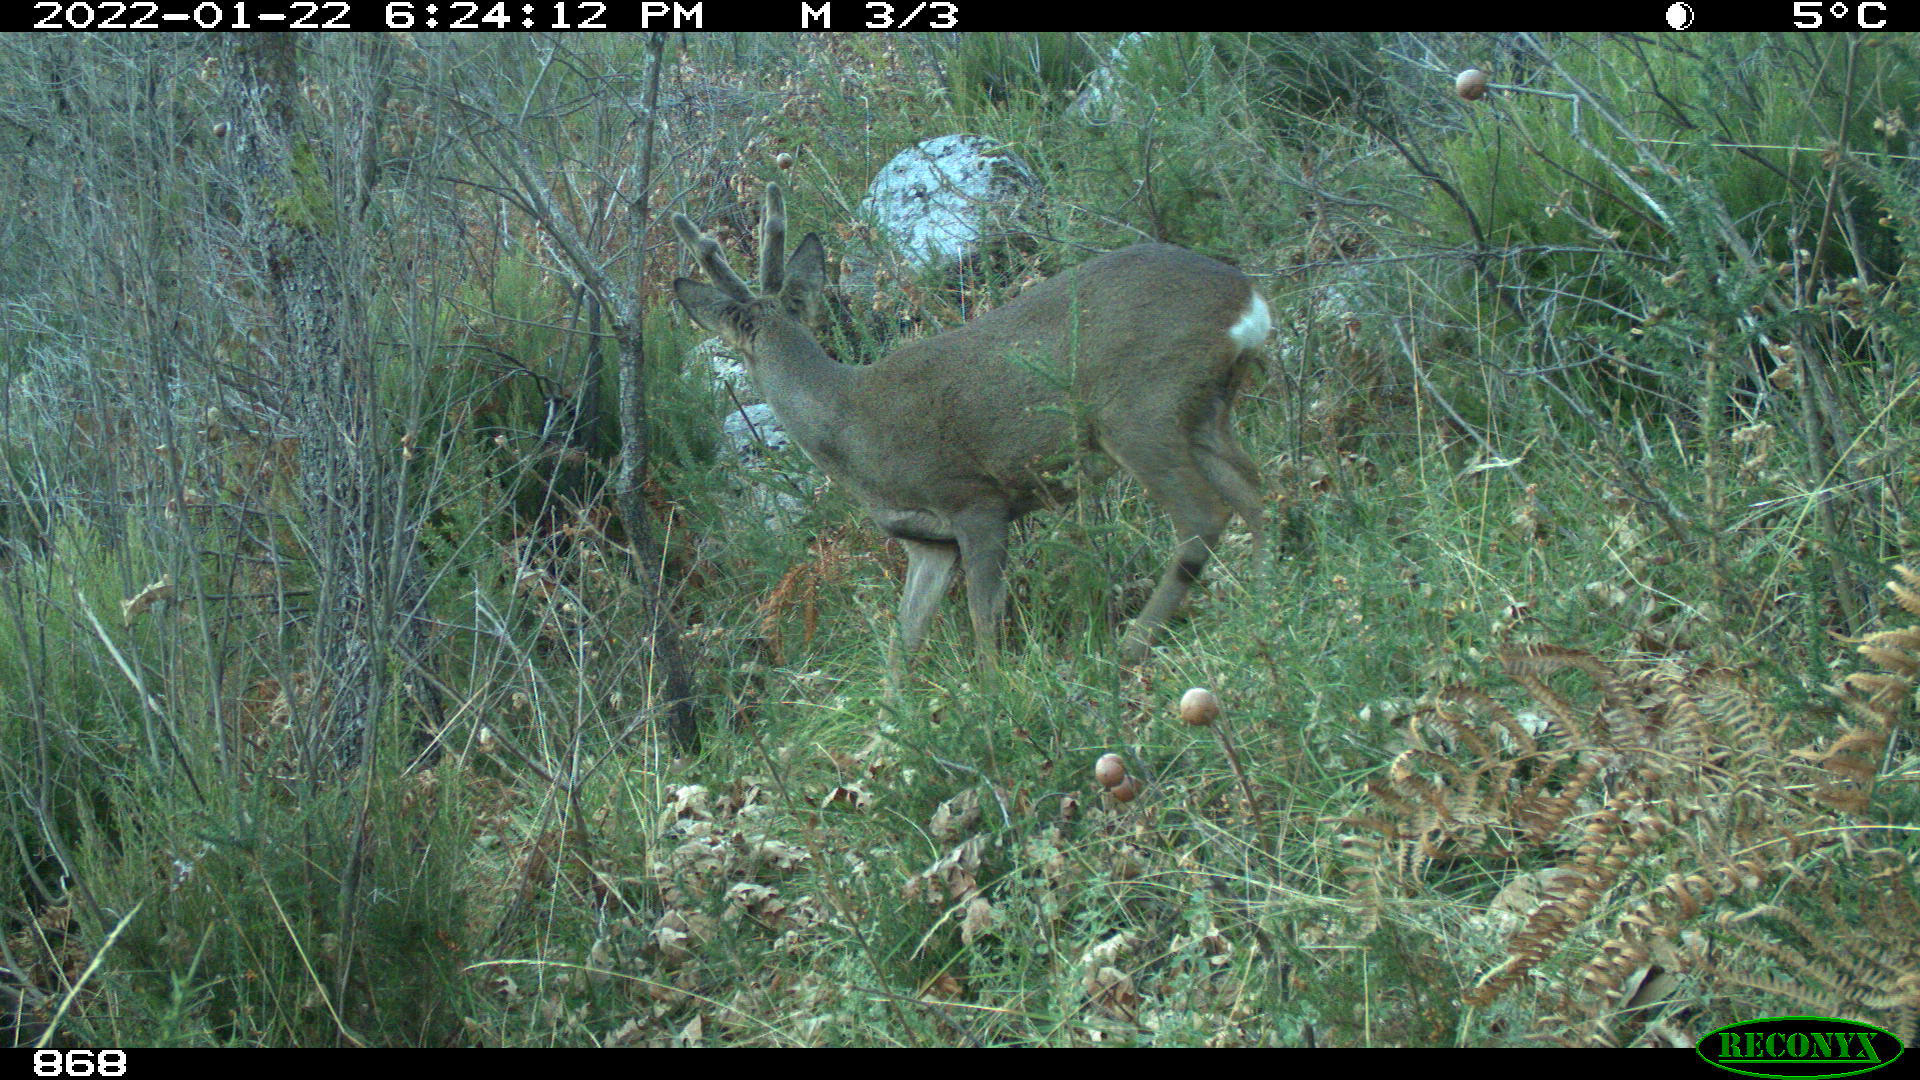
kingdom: Animalia
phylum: Chordata
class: Mammalia
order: Artiodactyla
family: Cervidae
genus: Capreolus
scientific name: Capreolus capreolus
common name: Western roe deer
